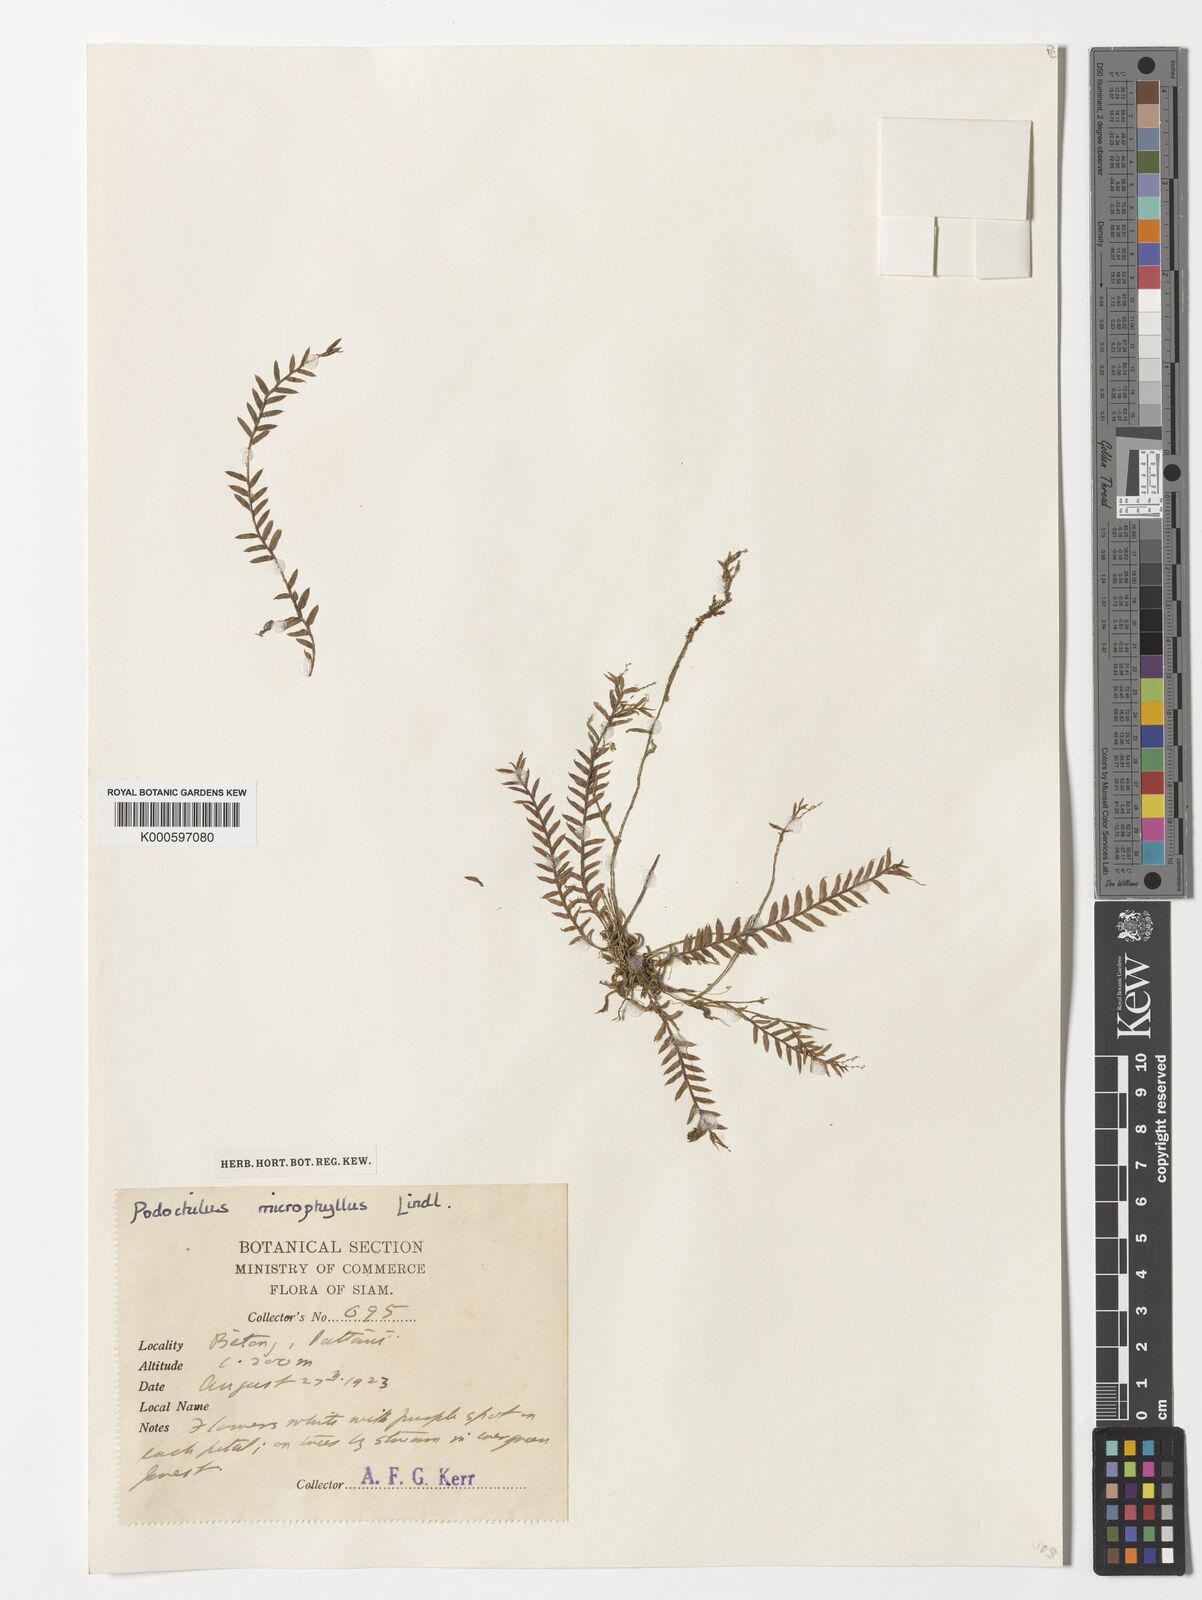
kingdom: Plantae
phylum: Tracheophyta
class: Liliopsida
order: Asparagales
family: Orchidaceae
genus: Podochilus
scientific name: Podochilus microphyllus
